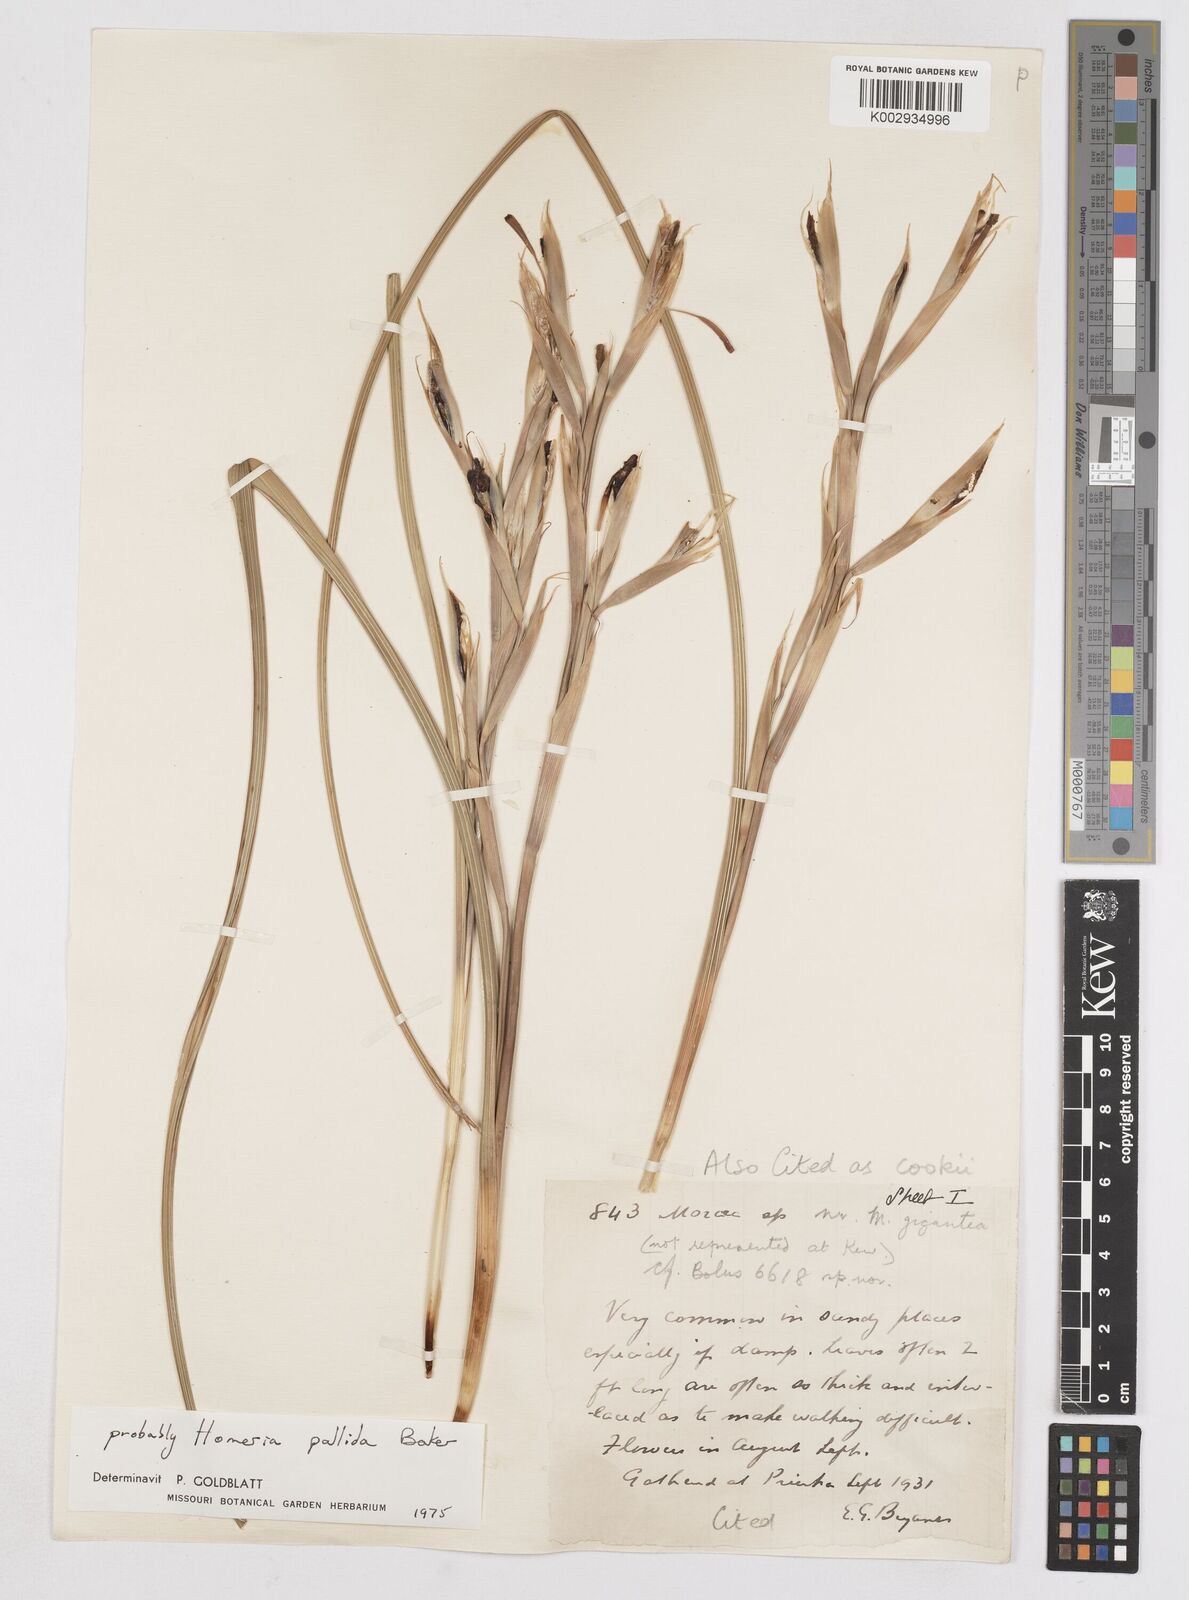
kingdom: Plantae
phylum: Tracheophyta
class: Liliopsida
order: Asparagales
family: Iridaceae
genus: Moraea
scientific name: Moraea pallida
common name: Yellow tulp
